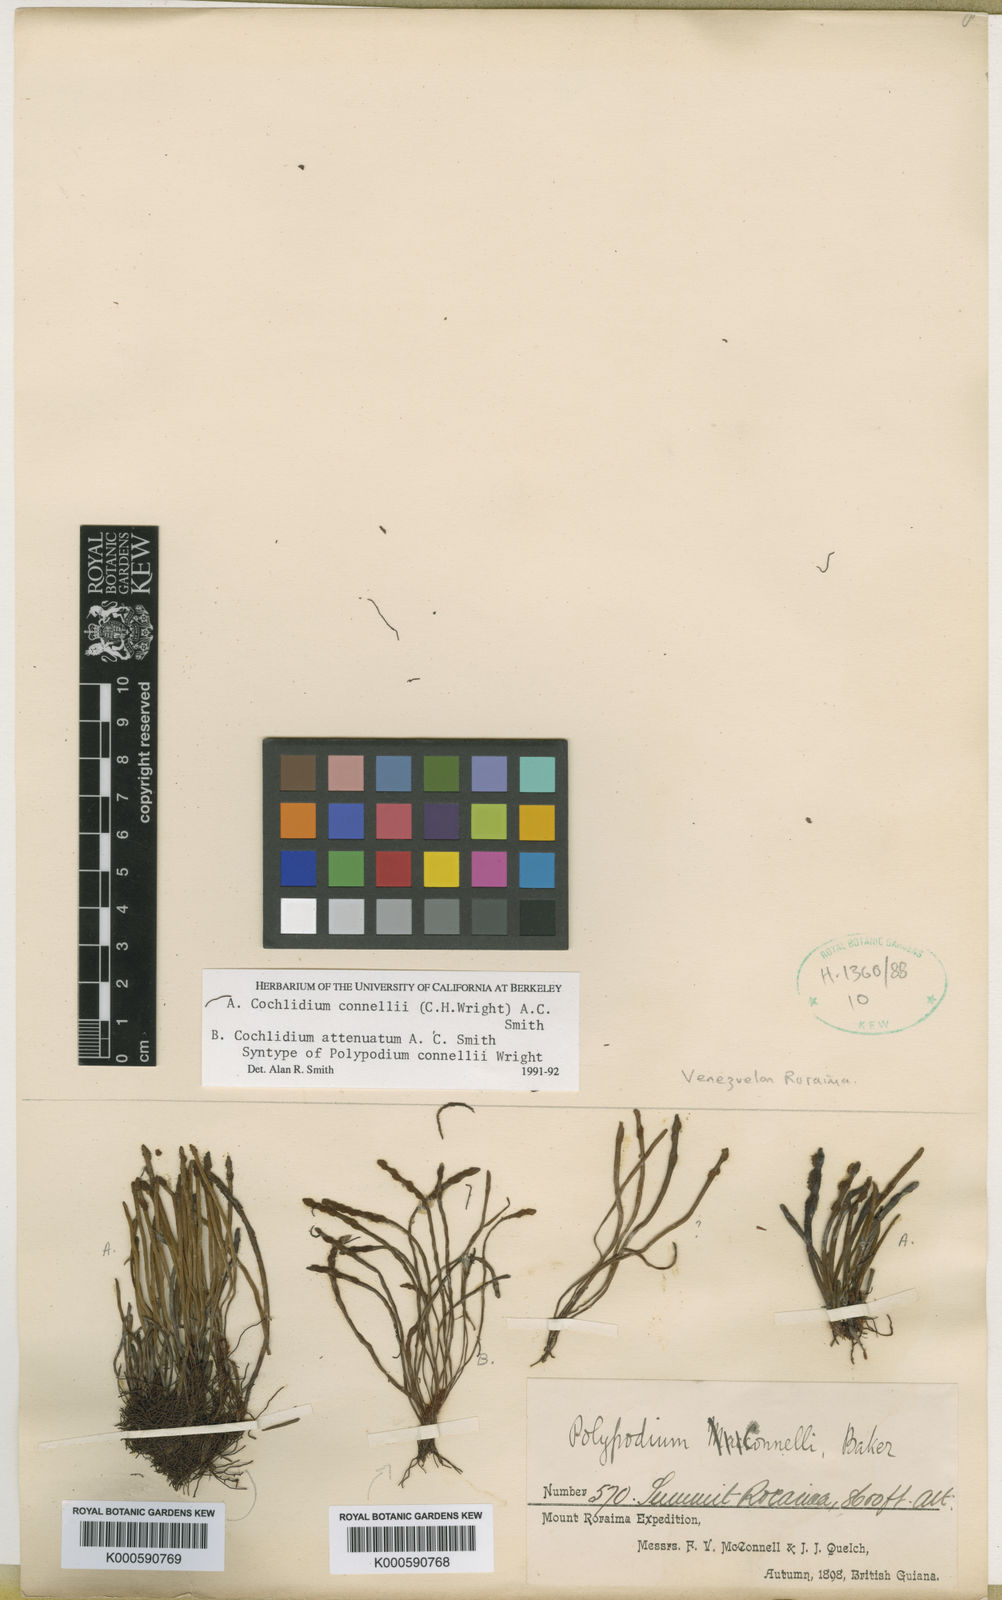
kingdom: Plantae
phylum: Tracheophyta
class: Polypodiopsida
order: Polypodiales
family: Polypodiaceae
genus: Cochlidium
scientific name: Cochlidium connellii
